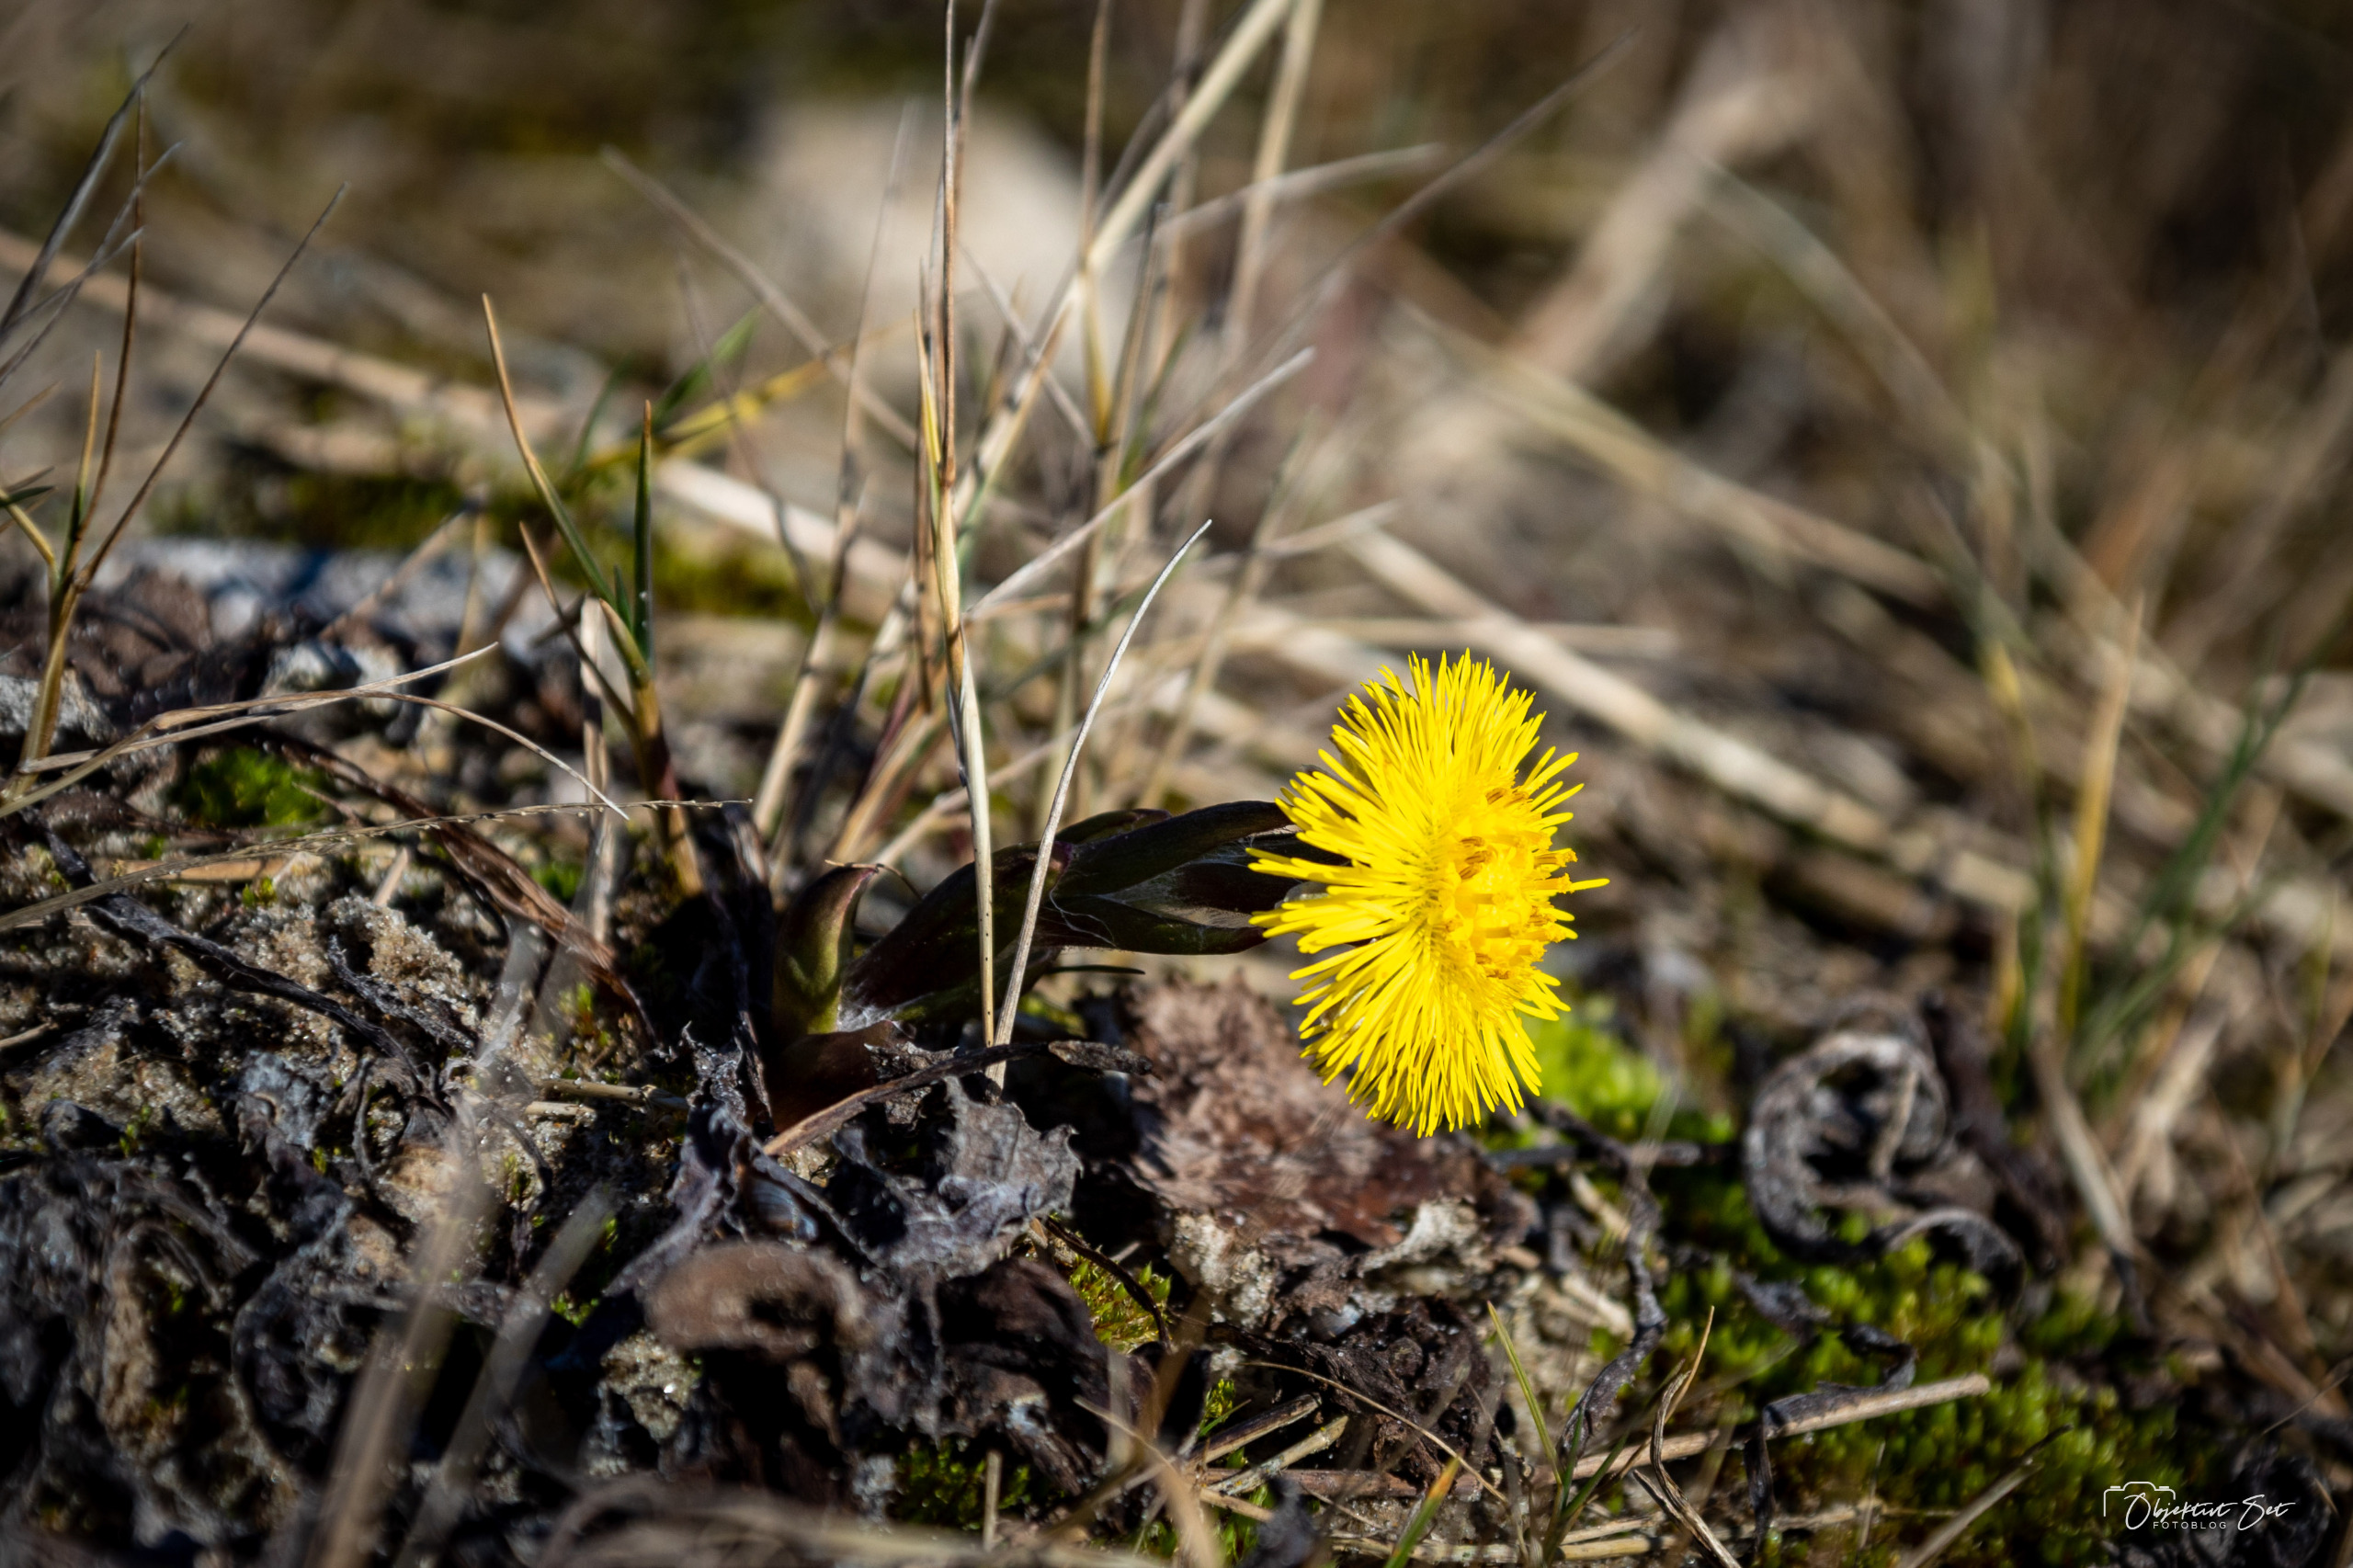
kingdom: Plantae
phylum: Tracheophyta
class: Magnoliopsida
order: Asterales
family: Asteraceae
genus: Tussilago
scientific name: Tussilago farfara
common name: Følfod
